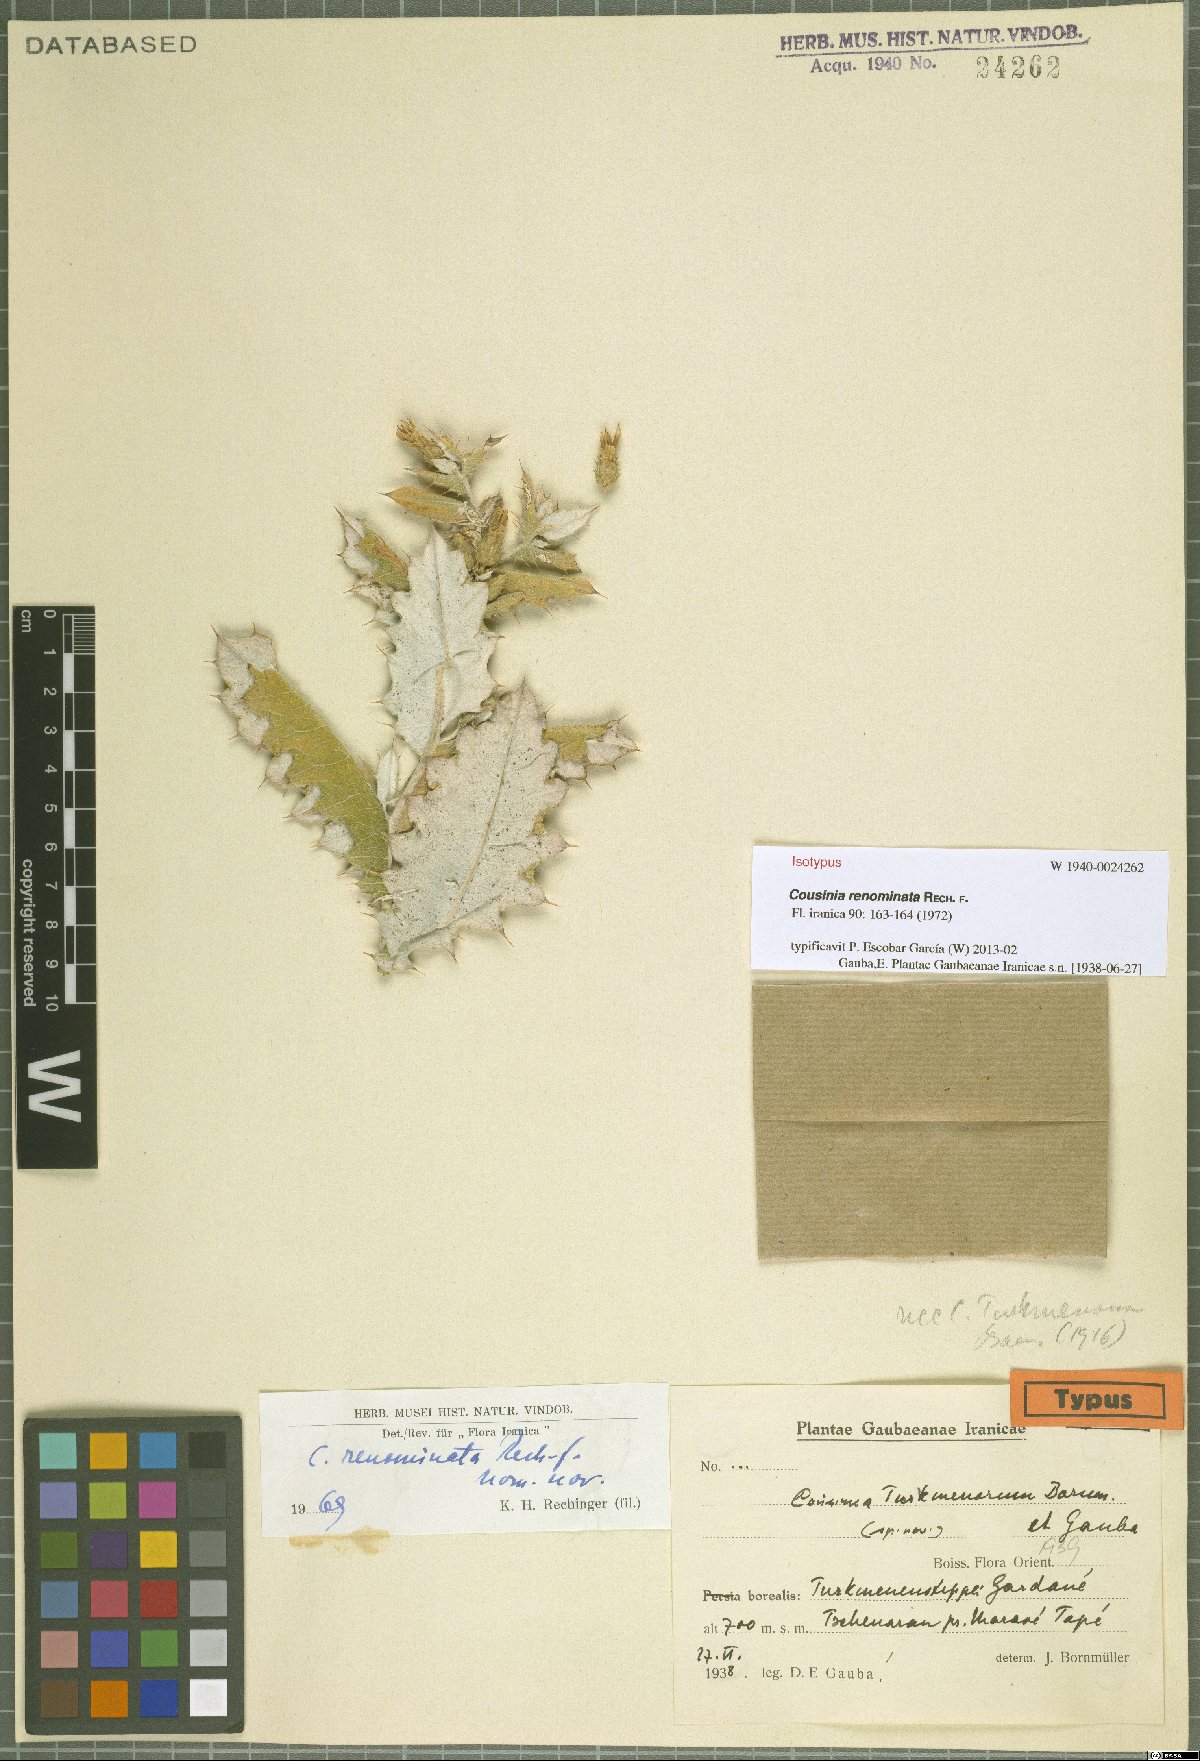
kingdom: Plantae
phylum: Tracheophyta
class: Magnoliopsida
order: Asterales
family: Asteraceae
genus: Cousinia
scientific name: Cousinia renominata
